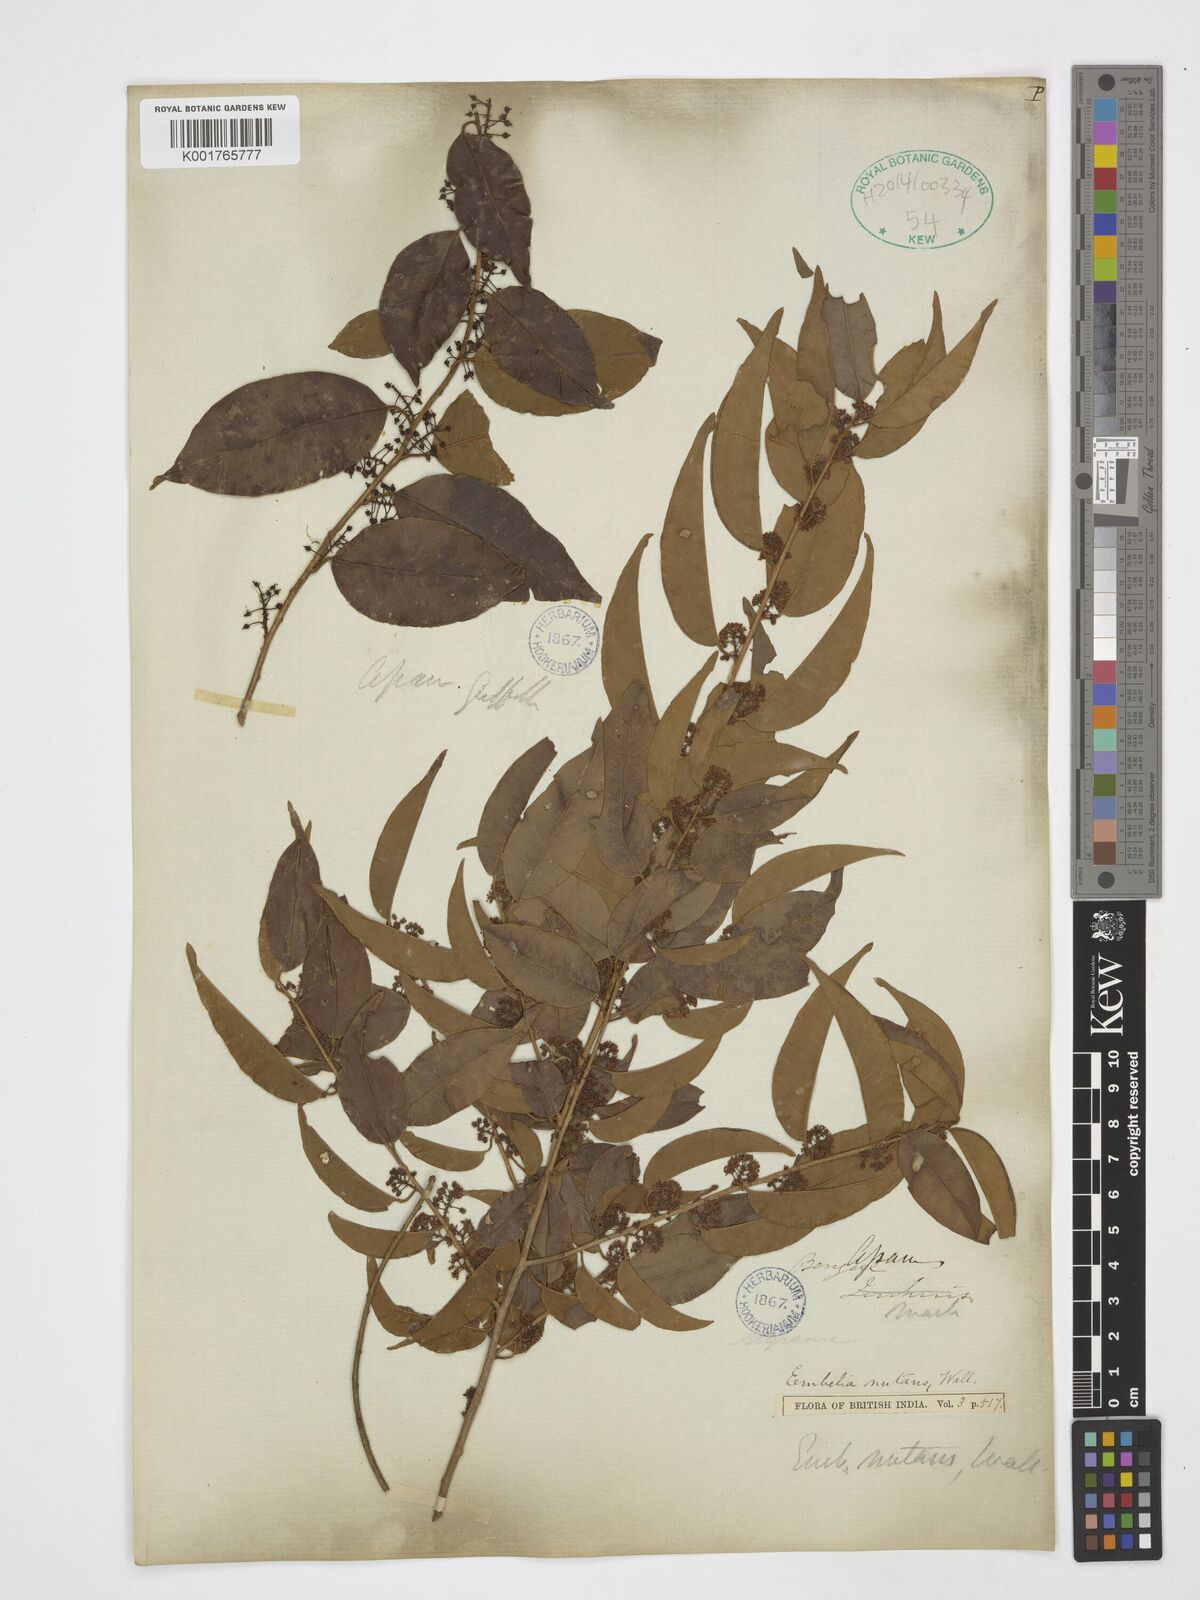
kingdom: Plantae
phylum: Tracheophyta
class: Magnoliopsida
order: Ericales
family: Primulaceae
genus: Embelia
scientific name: Embelia nutans
